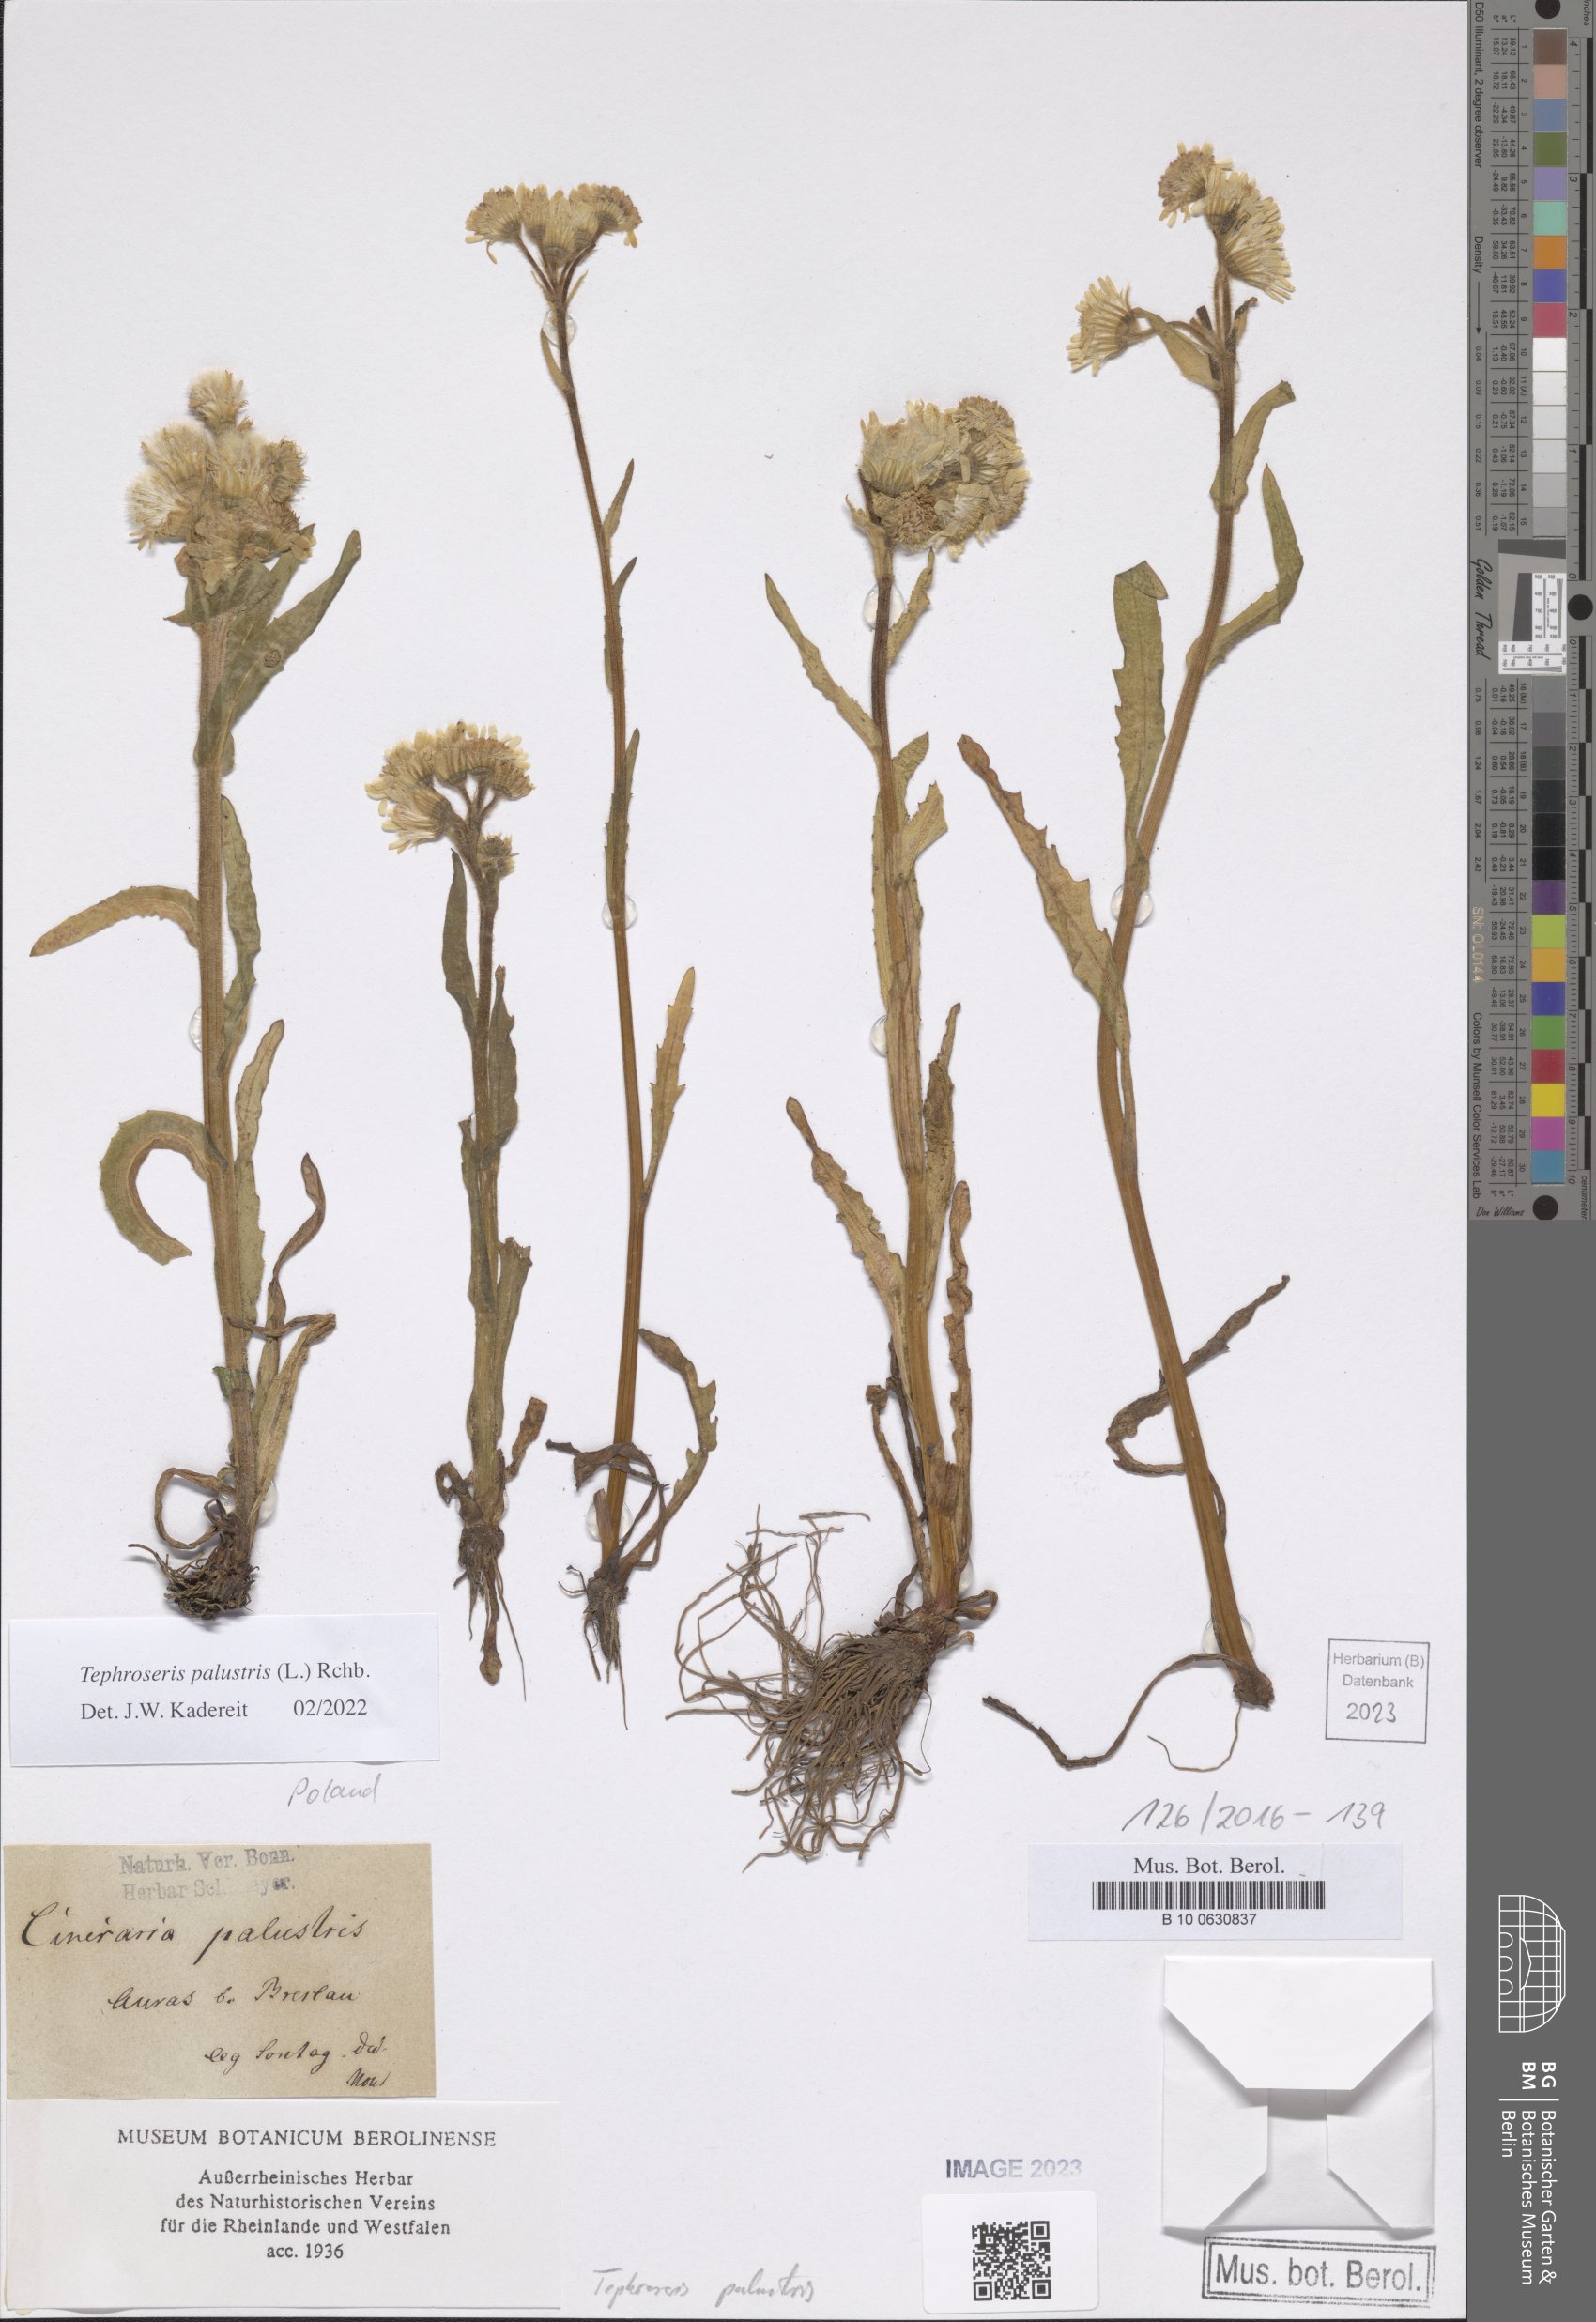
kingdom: Plantae
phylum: Tracheophyta
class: Magnoliopsida
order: Asterales
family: Asteraceae
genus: Tephroseris
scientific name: Tephroseris palustris
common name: Marsh fleawort
